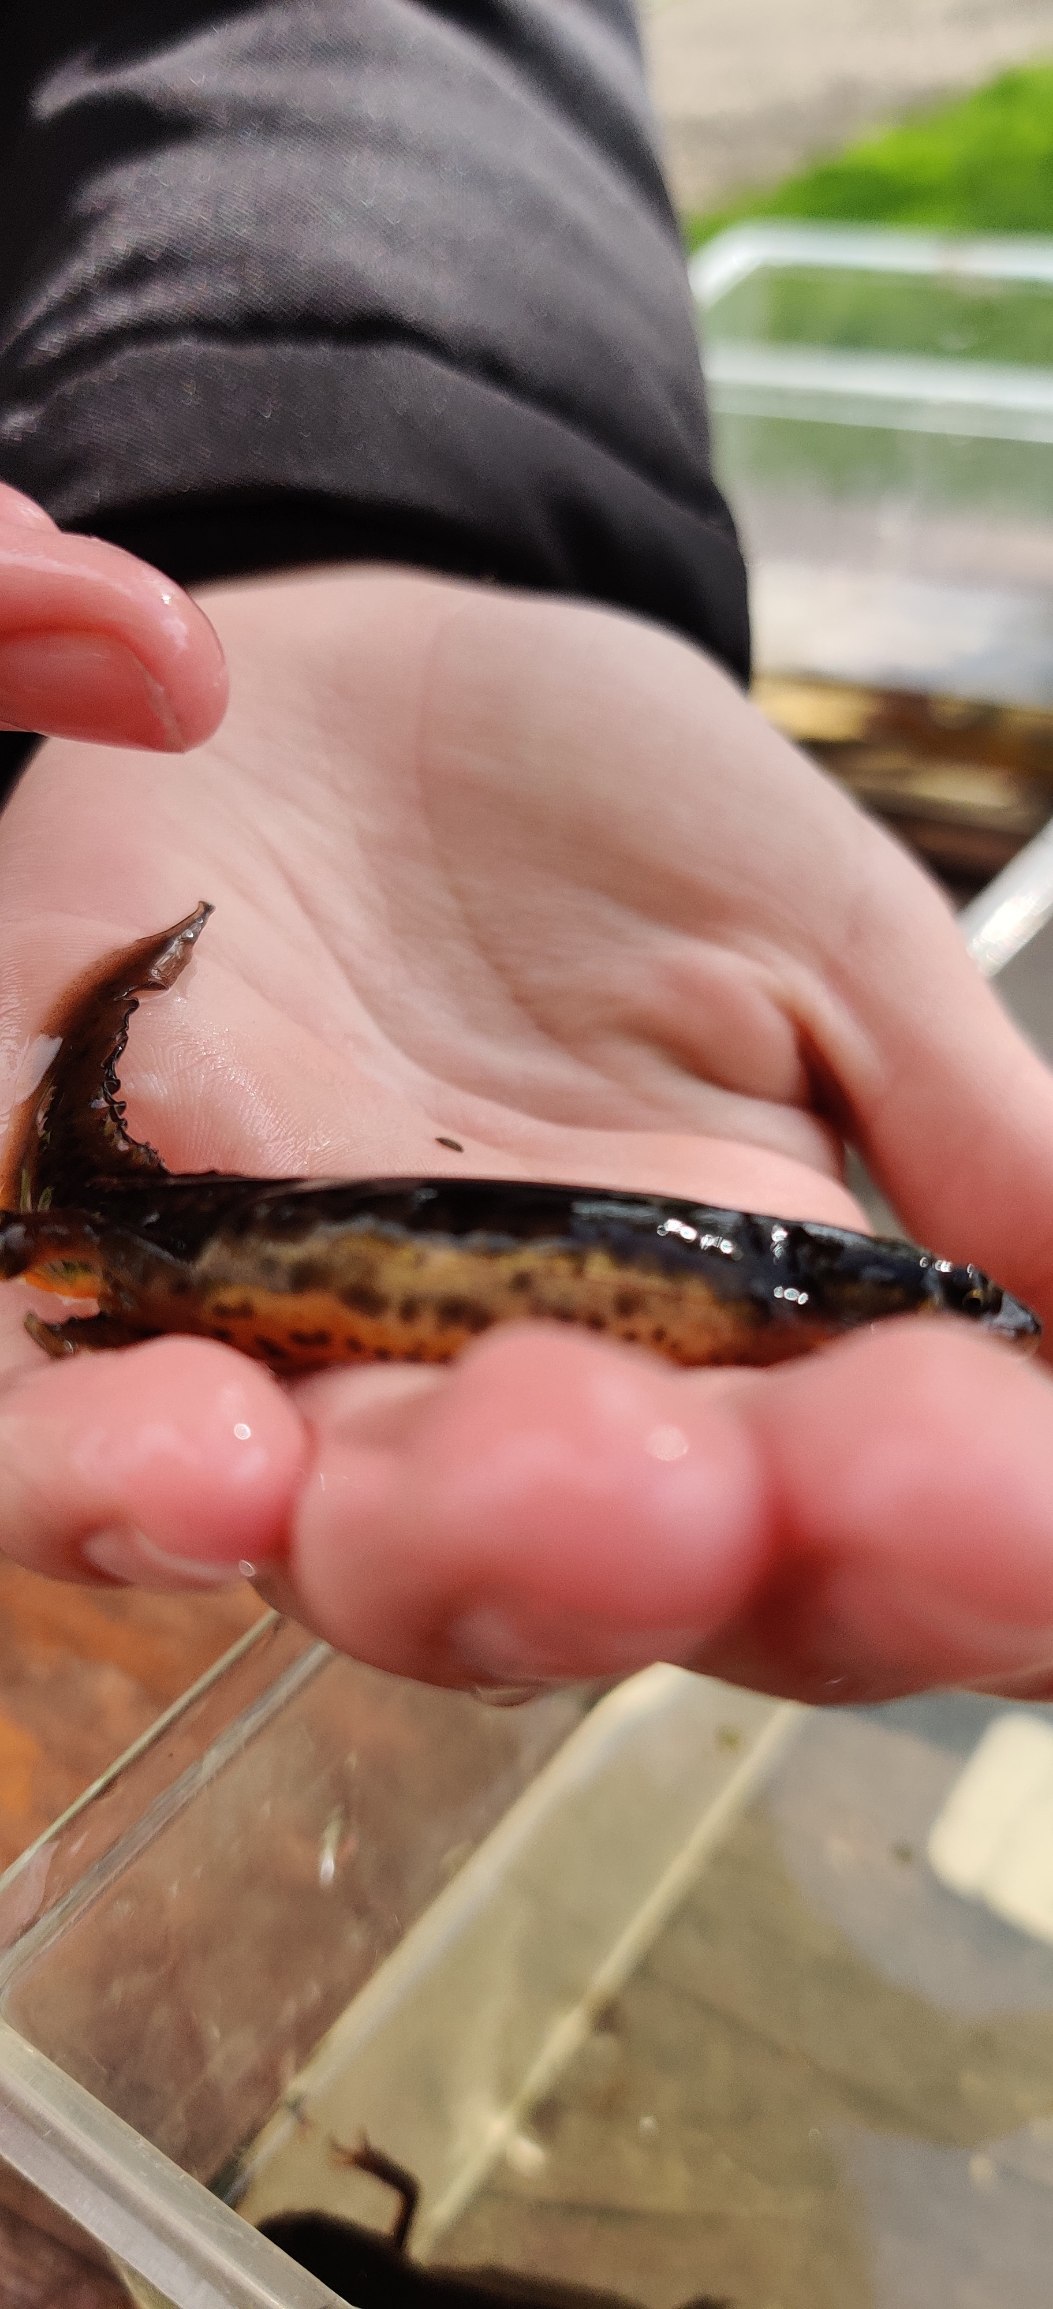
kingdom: Animalia
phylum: Chordata
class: Amphibia
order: Caudata
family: Salamandridae
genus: Lissotriton
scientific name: Lissotriton vulgaris
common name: Lille vandsalamander
